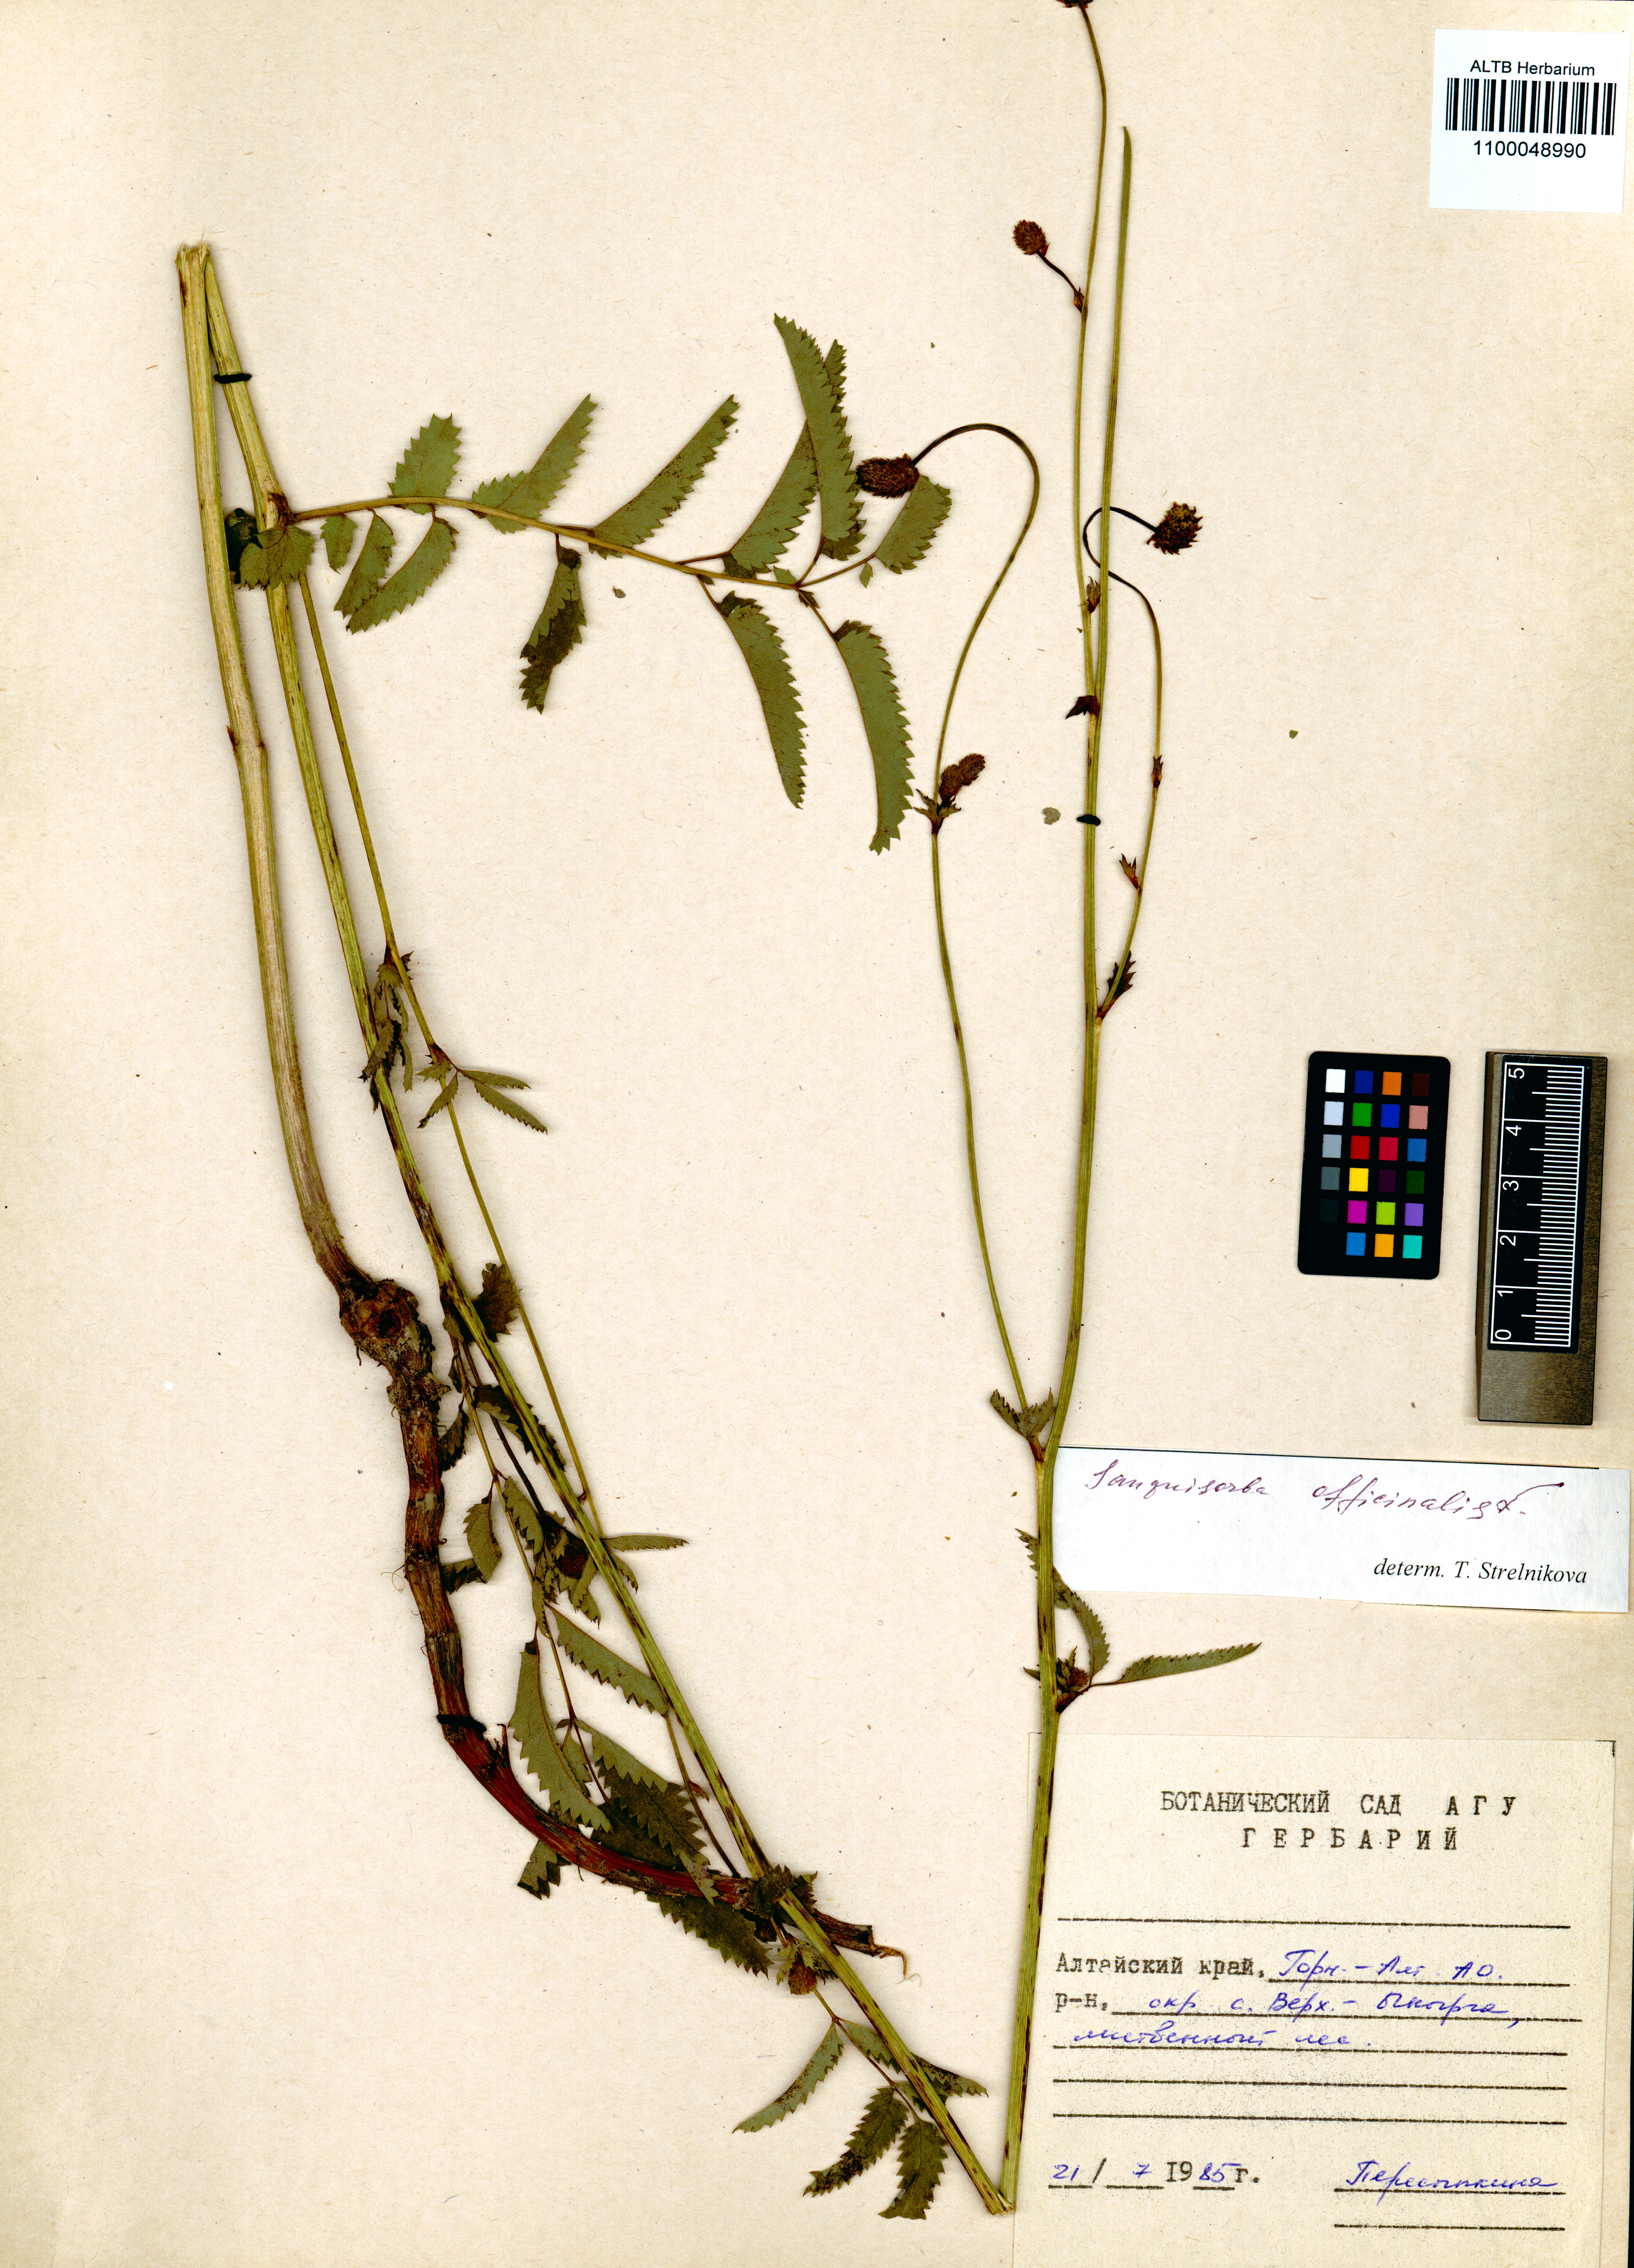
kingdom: Plantae
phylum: Tracheophyta
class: Magnoliopsida
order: Rosales
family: Rosaceae
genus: Sanguisorba
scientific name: Sanguisorba officinalis
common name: Great burnet
